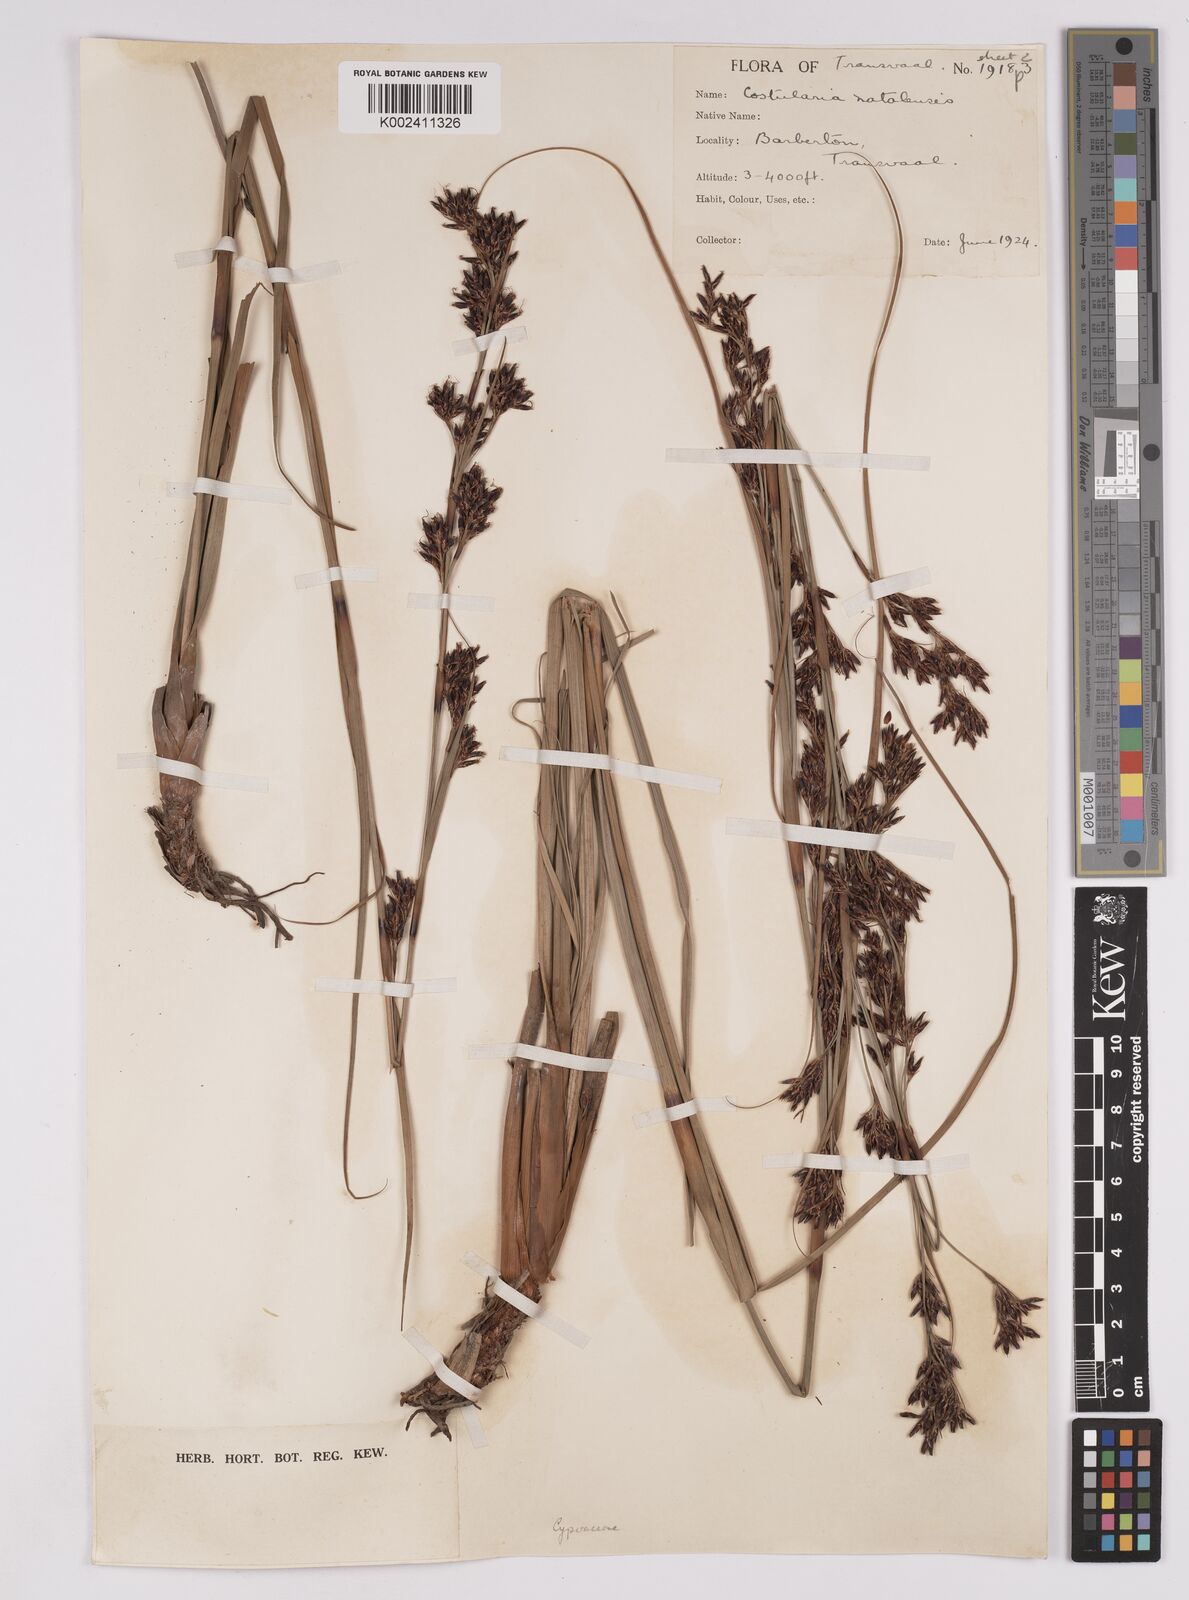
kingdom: Plantae
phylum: Tracheophyta
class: Liliopsida
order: Poales
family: Cyperaceae
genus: Costularia
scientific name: Costularia natalensis
